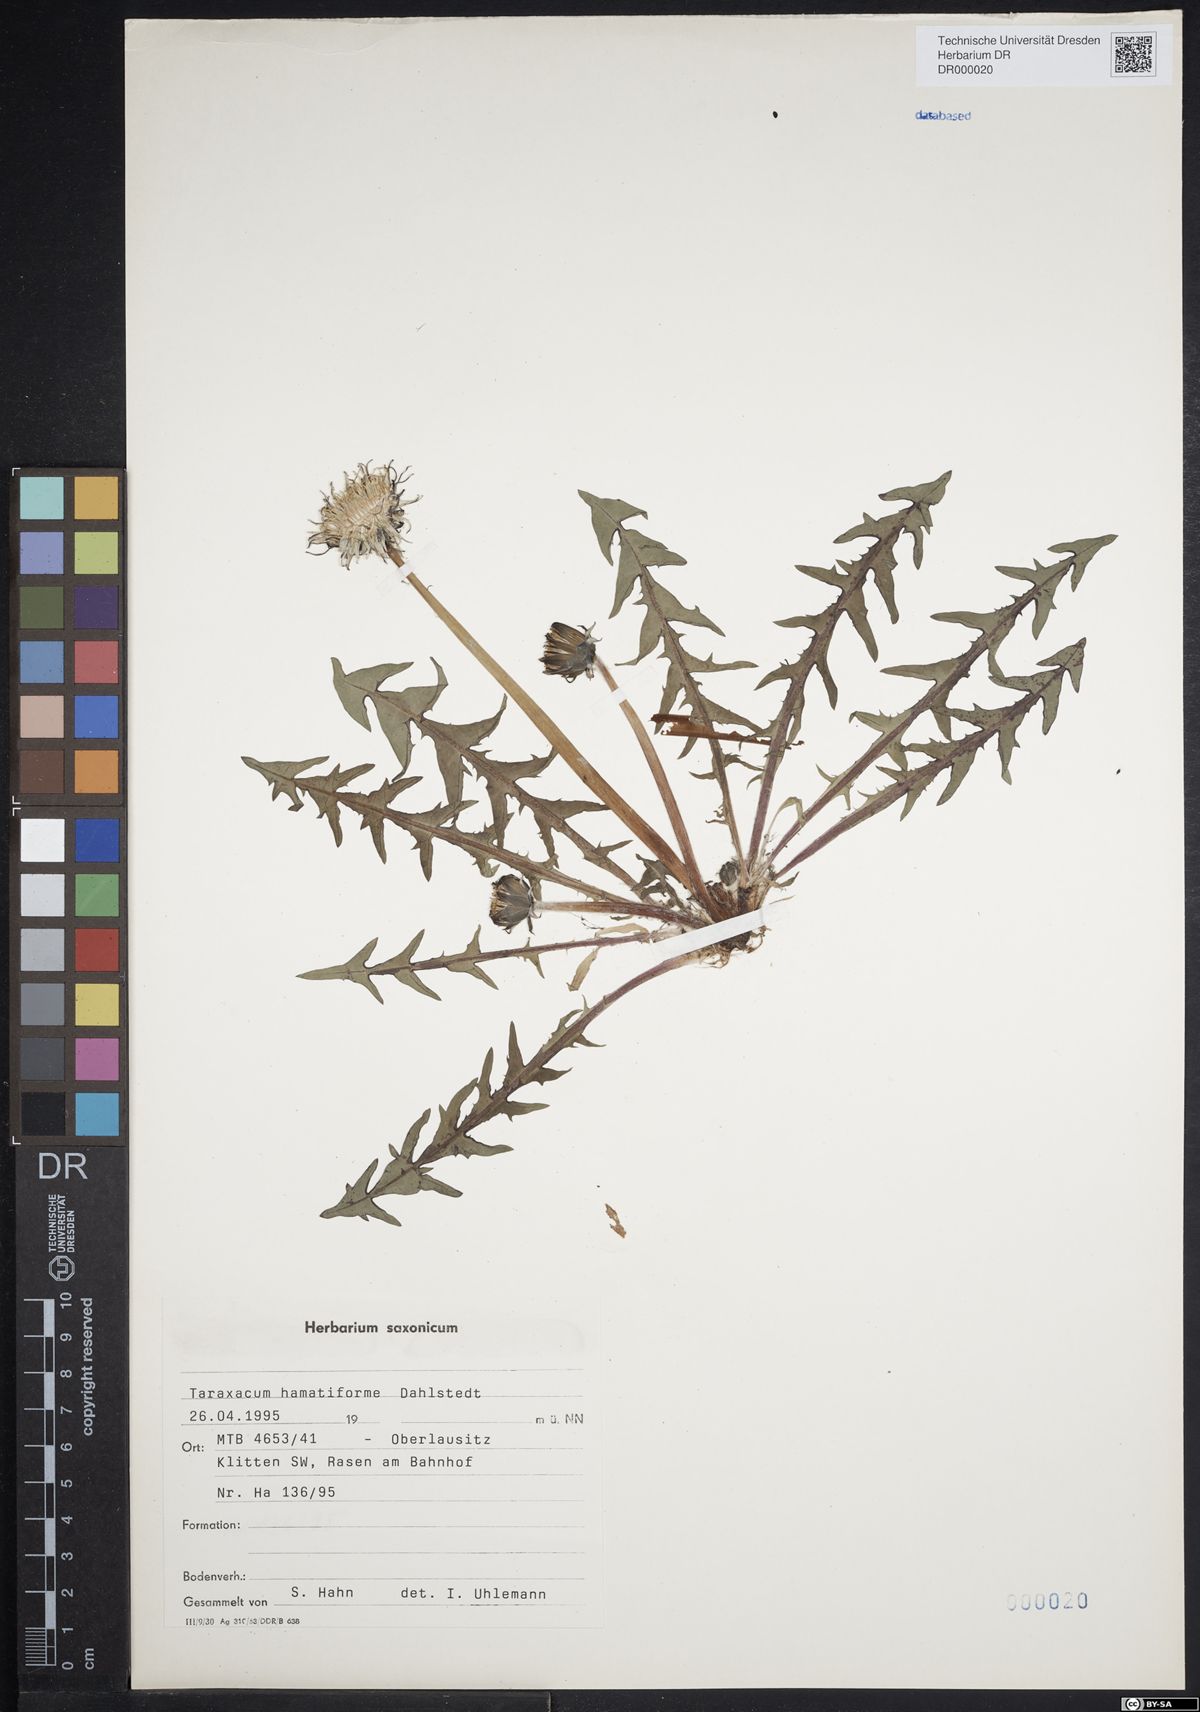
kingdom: Plantae
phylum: Tracheophyta
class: Magnoliopsida
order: Asterales
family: Asteraceae
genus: Taraxacum
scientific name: Taraxacum hamatiforme
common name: Asymmetrical hook-lobed dandelion
